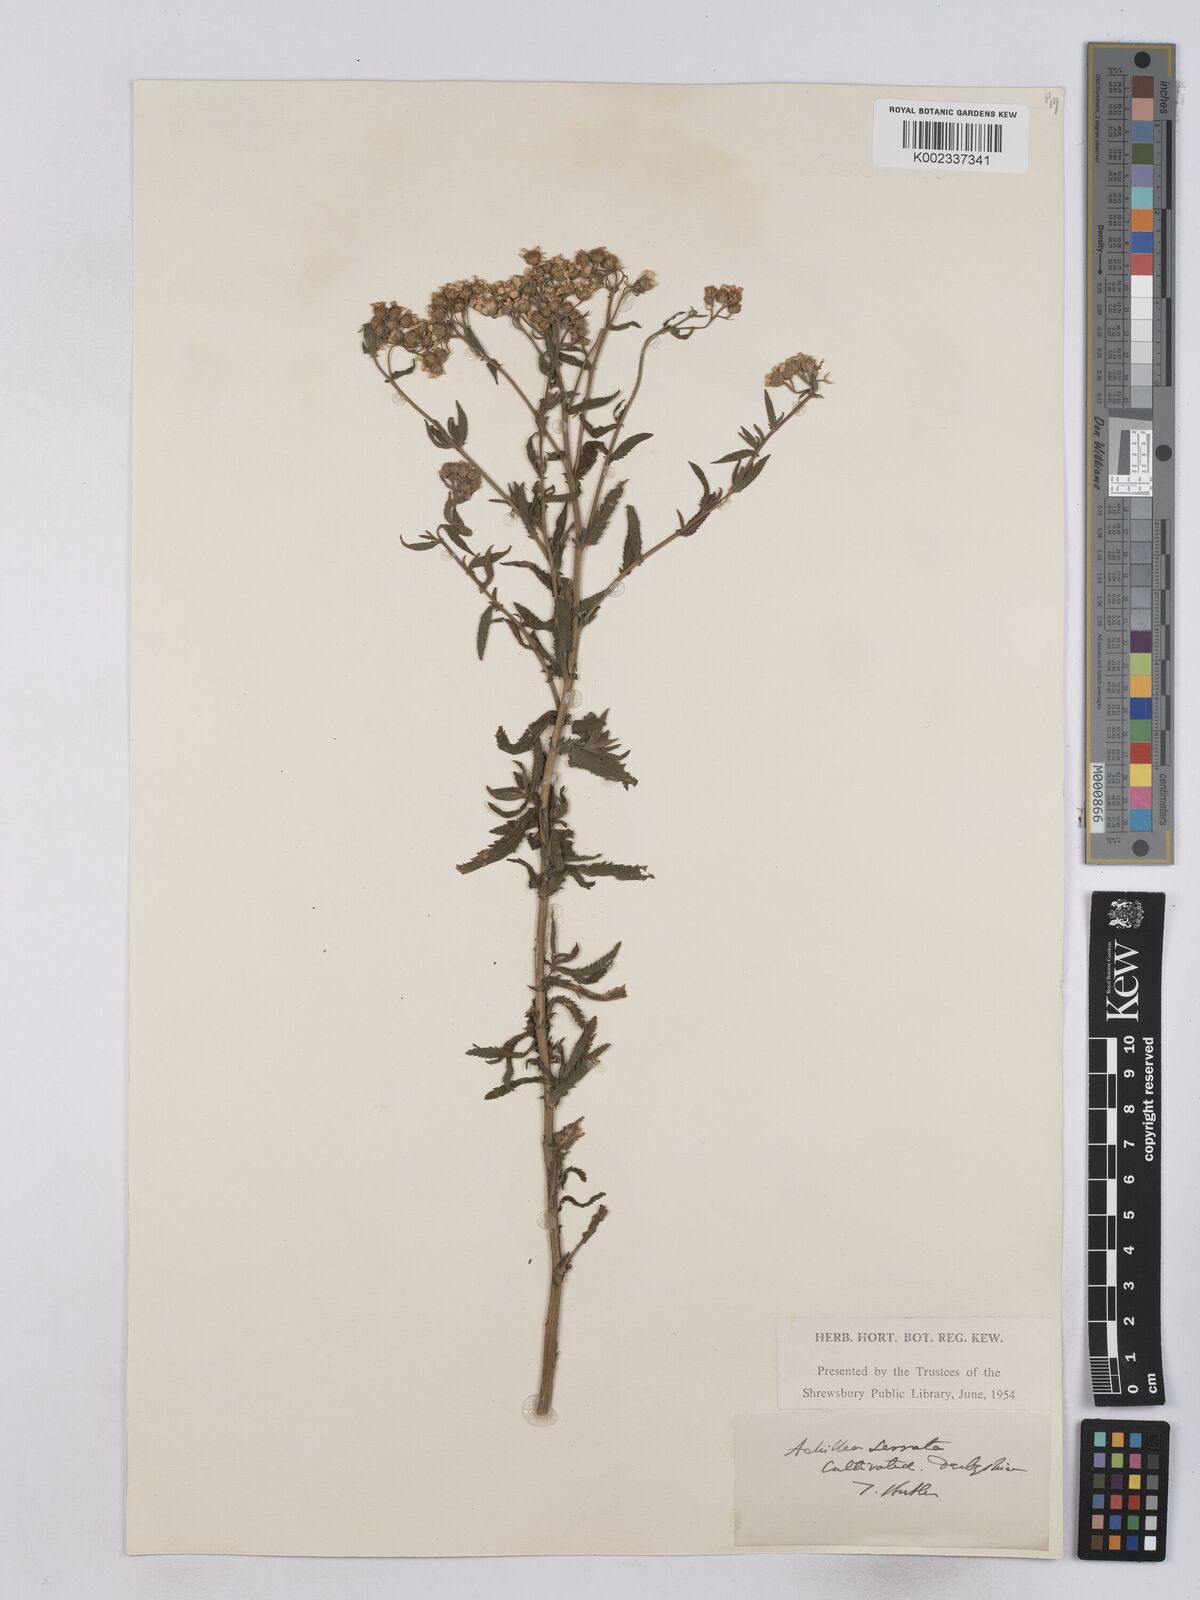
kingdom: Plantae
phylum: Tracheophyta
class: Magnoliopsida
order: Asterales
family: Asteraceae
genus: Achillea
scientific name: Achillea serrata
